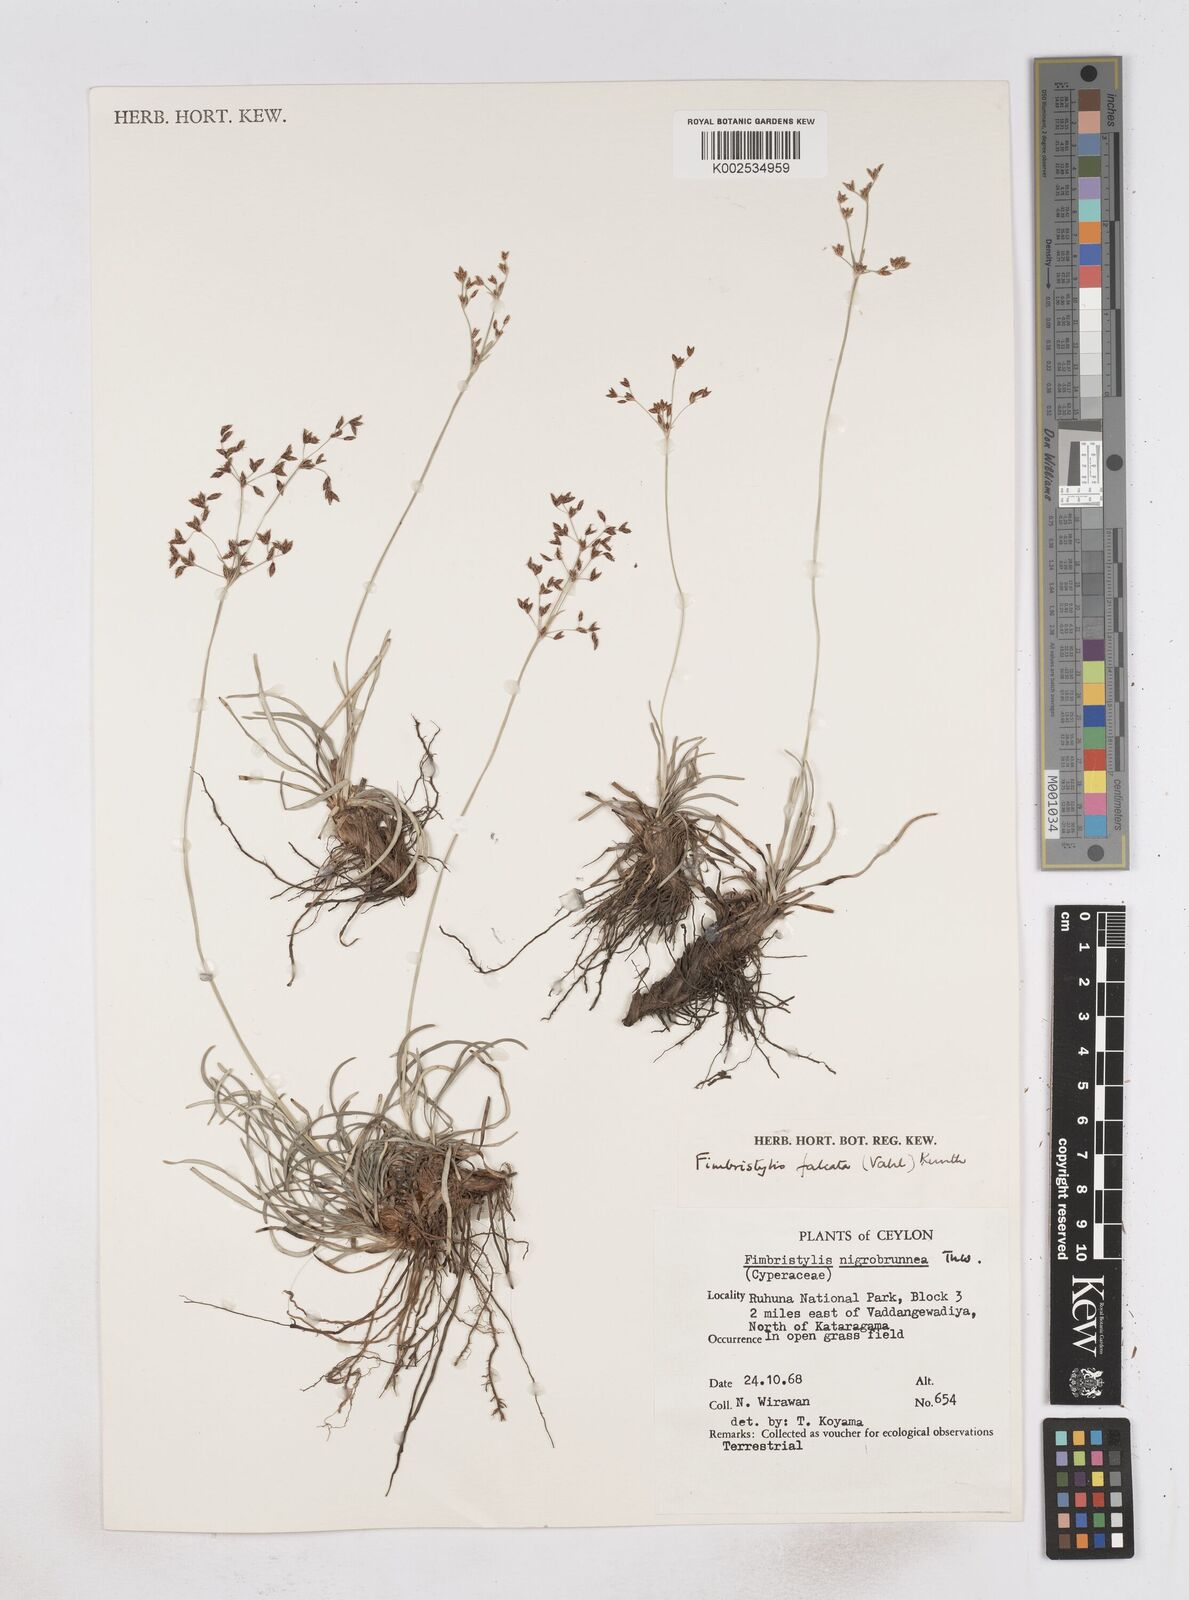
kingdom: Plantae
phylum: Tracheophyta
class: Liliopsida
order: Poales
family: Cyperaceae
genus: Fimbristylis
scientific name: Fimbristylis falcata
